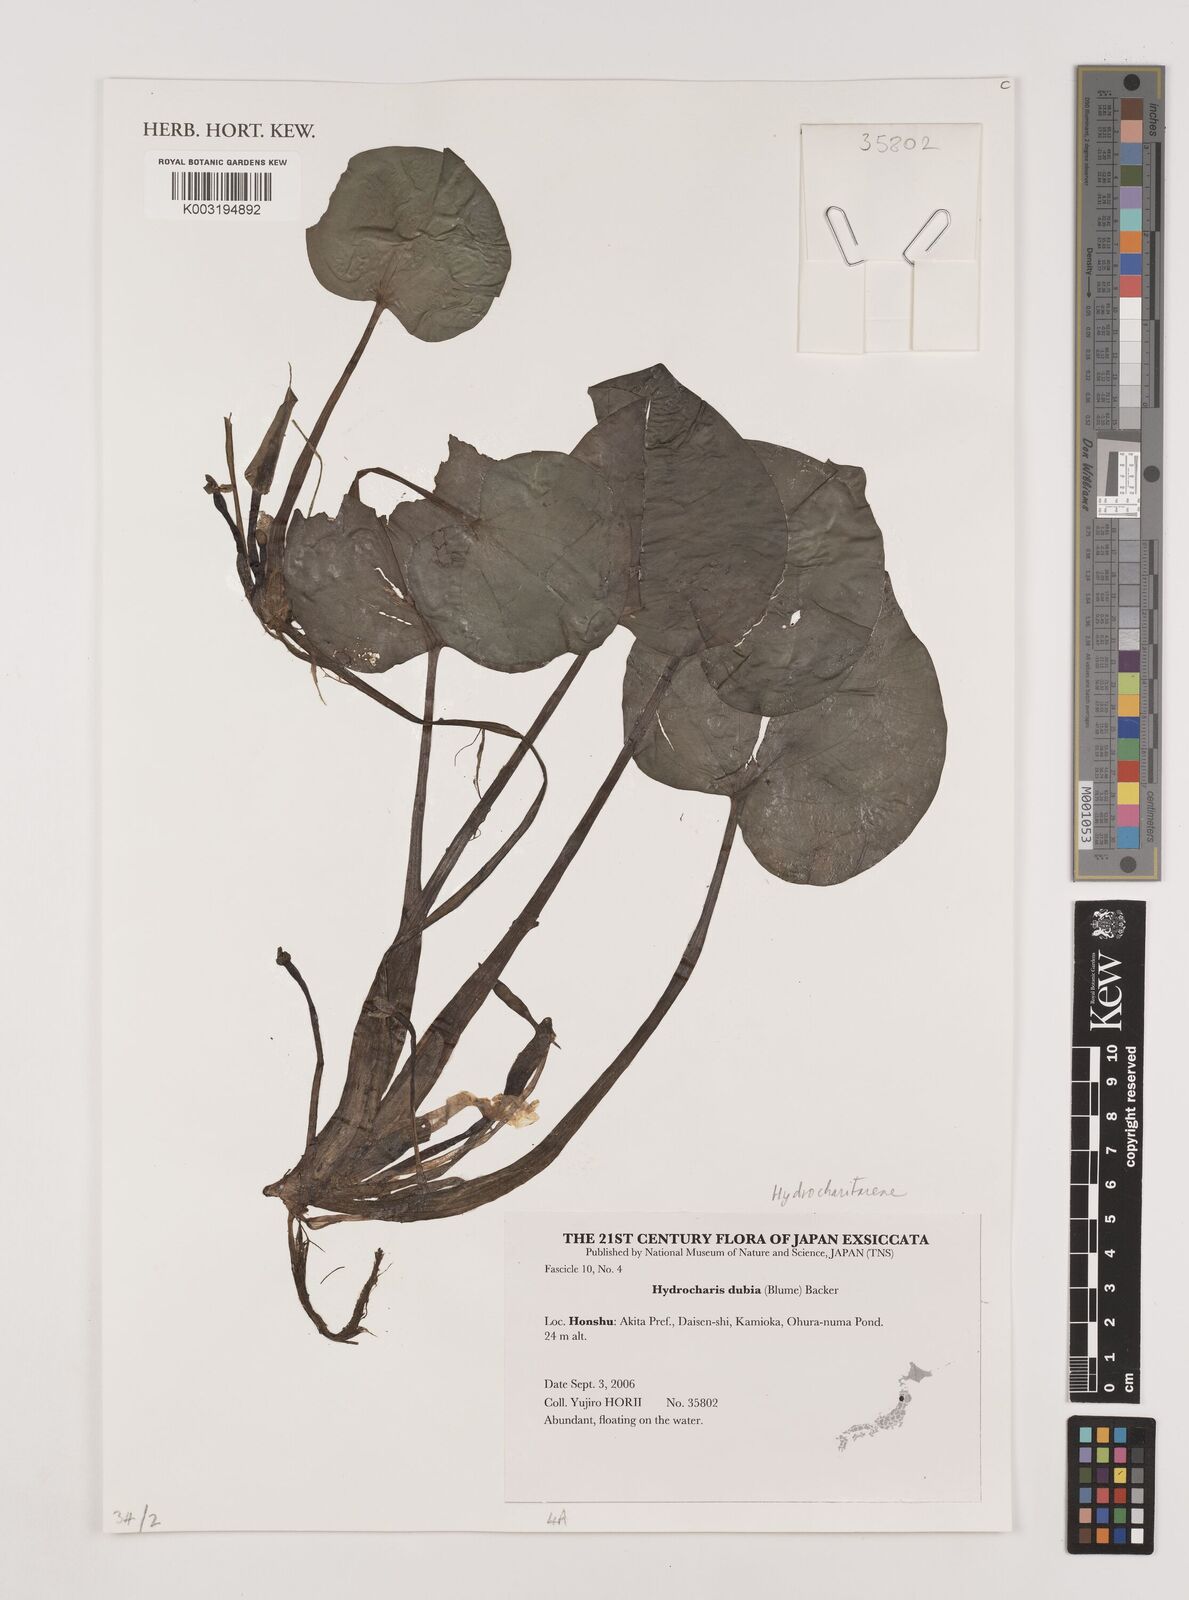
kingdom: Plantae
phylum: Tracheophyta
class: Liliopsida
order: Alismatales
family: Hydrocharitaceae
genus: Hydrocharis
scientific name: Hydrocharis dubia
